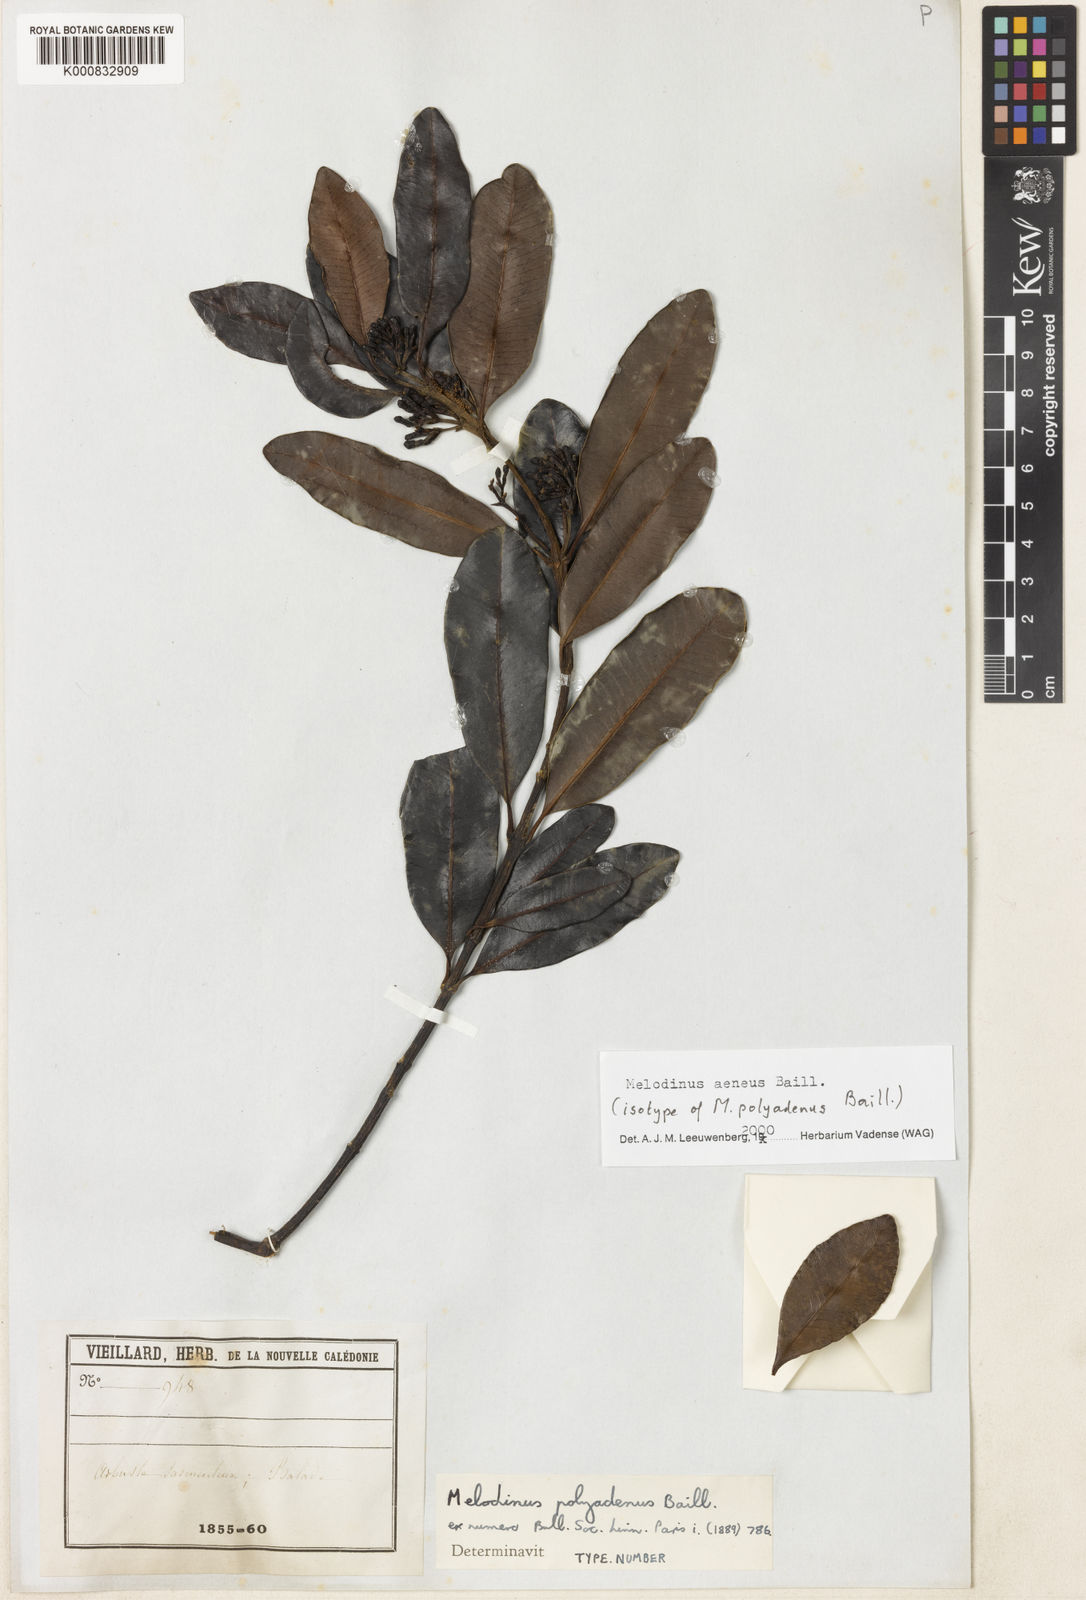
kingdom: Plantae
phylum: Tracheophyta
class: Magnoliopsida
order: Gentianales
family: Apocynaceae
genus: Melodinus
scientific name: Melodinus aeneus
